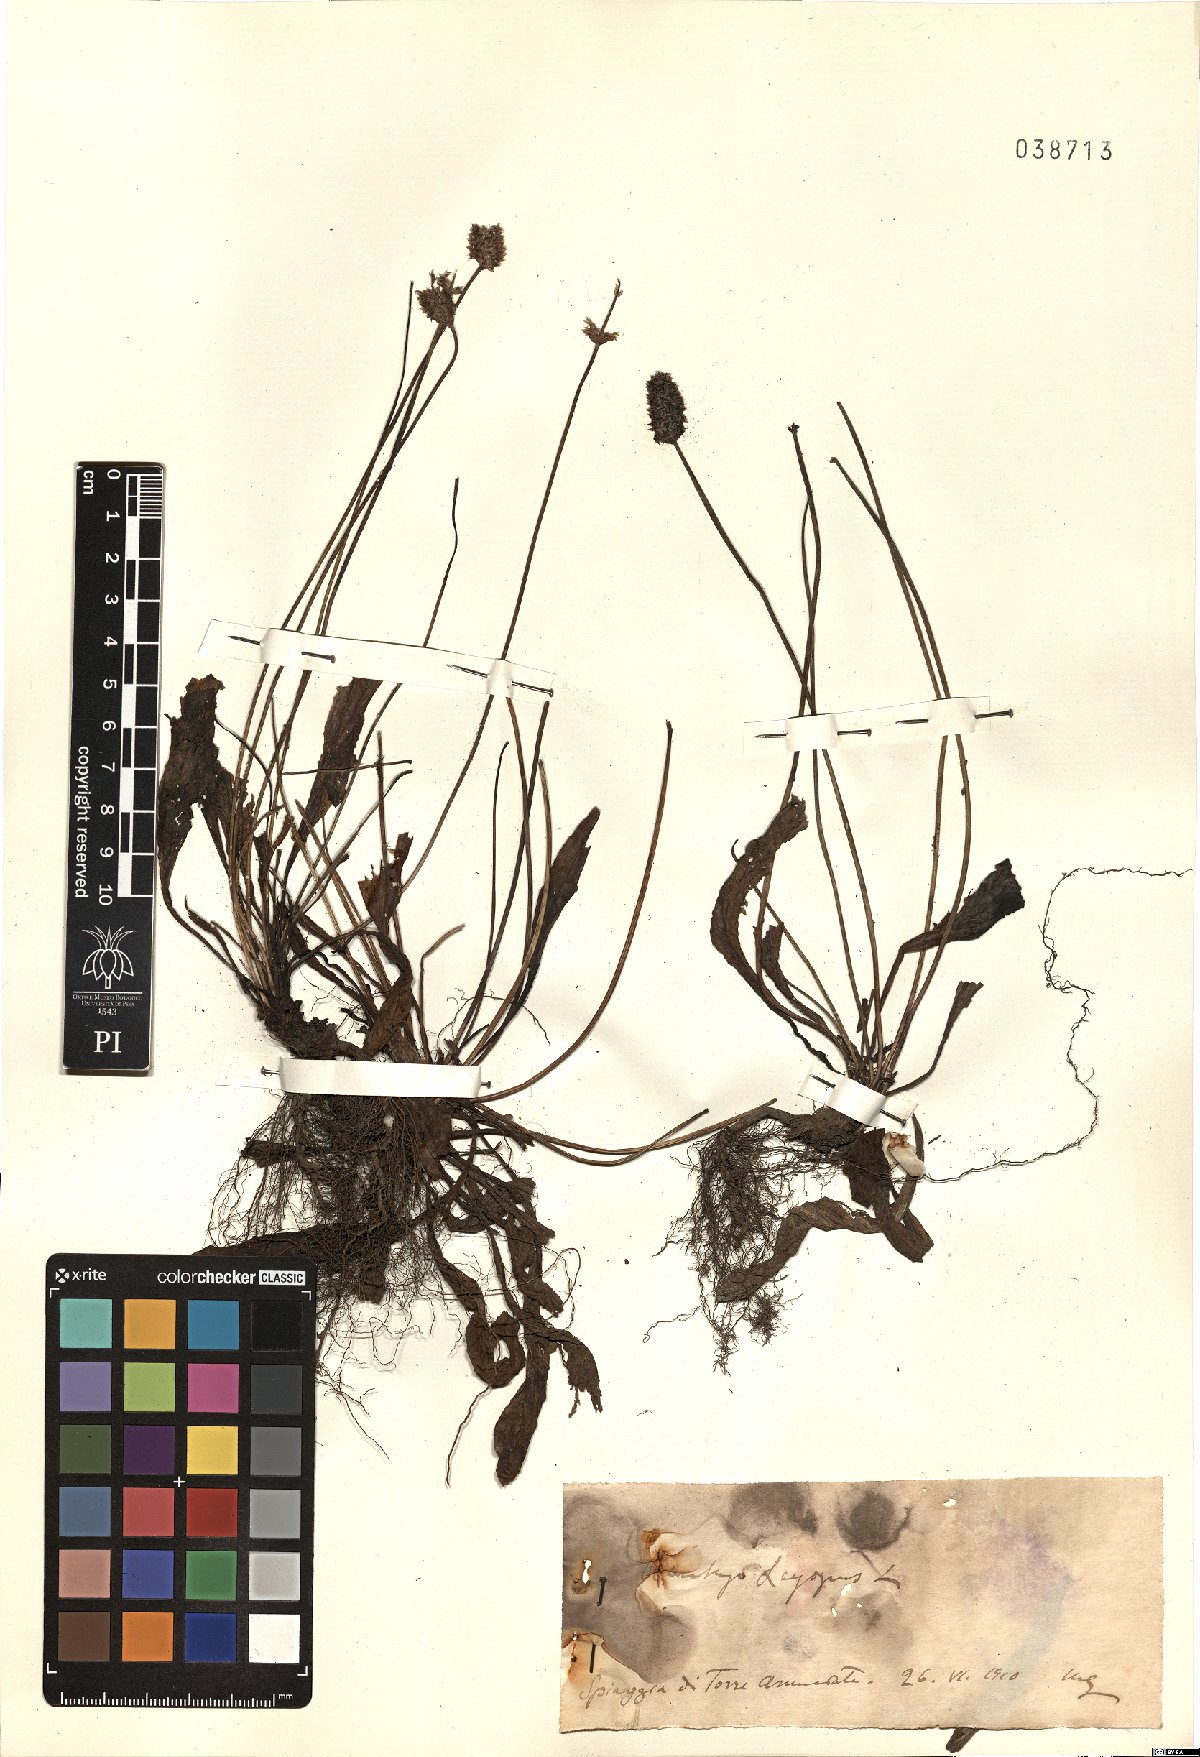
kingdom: Plantae
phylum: Tracheophyta
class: Magnoliopsida
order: Lamiales
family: Plantaginaceae
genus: Plantago
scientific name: Plantago lagopus
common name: Hare-foot plantain
